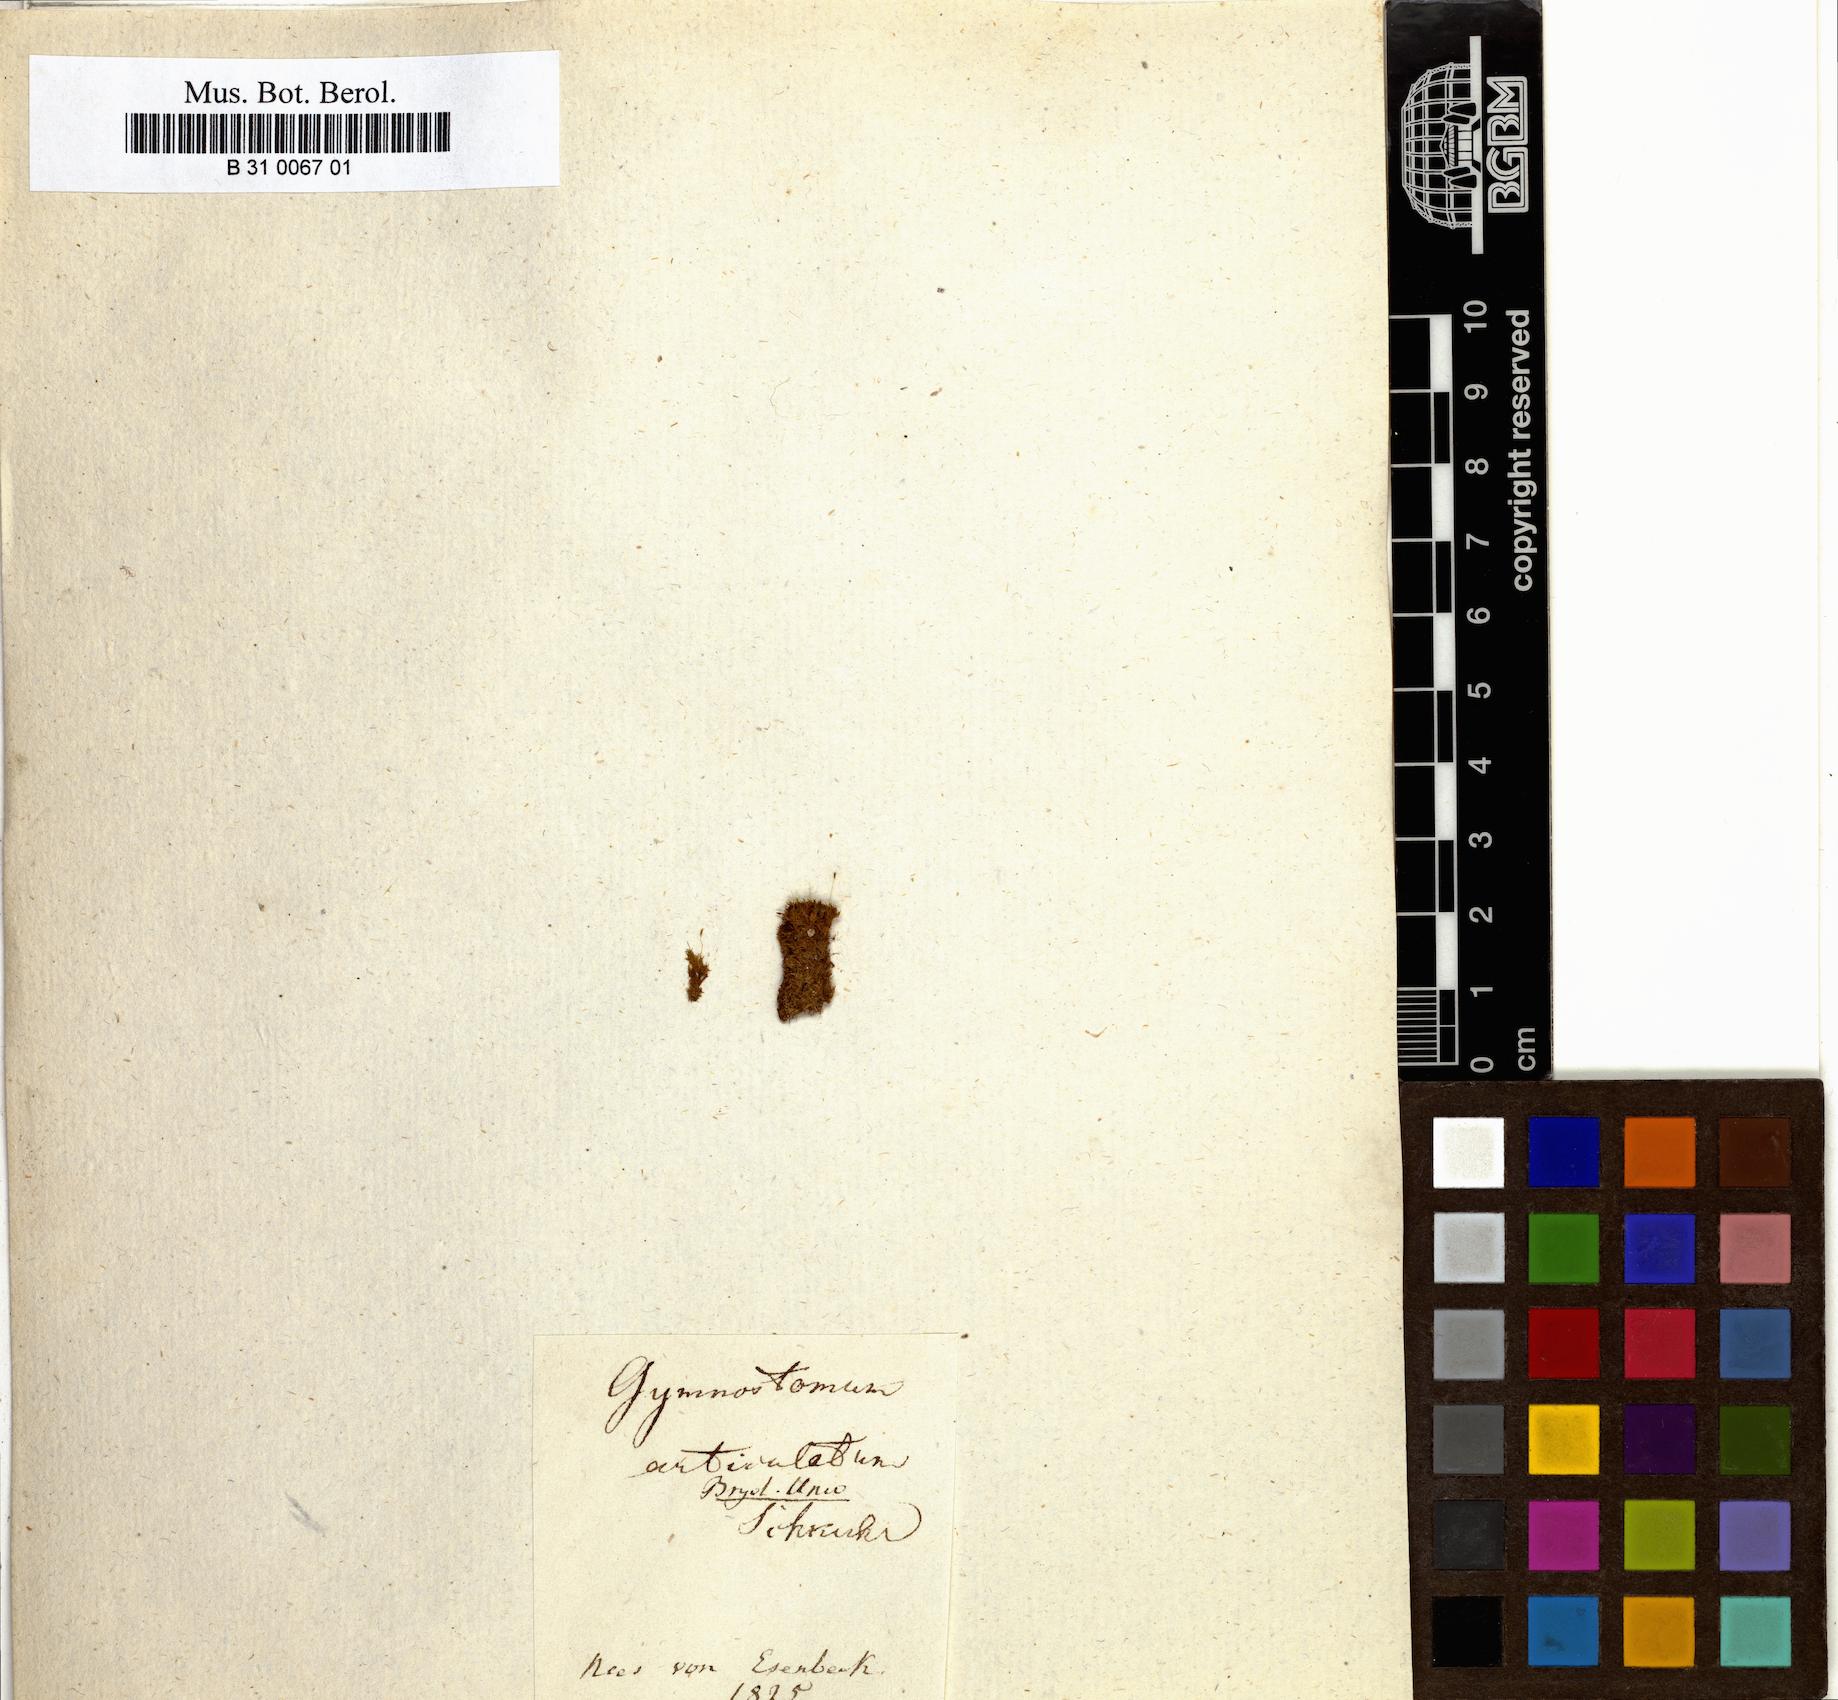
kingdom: Plantae
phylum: Bryophyta
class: Bryopsida
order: Pottiales
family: Pottiaceae
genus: Gymnostomum
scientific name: Gymnostomum aeruginosum
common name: Verdigris tufa-moss
